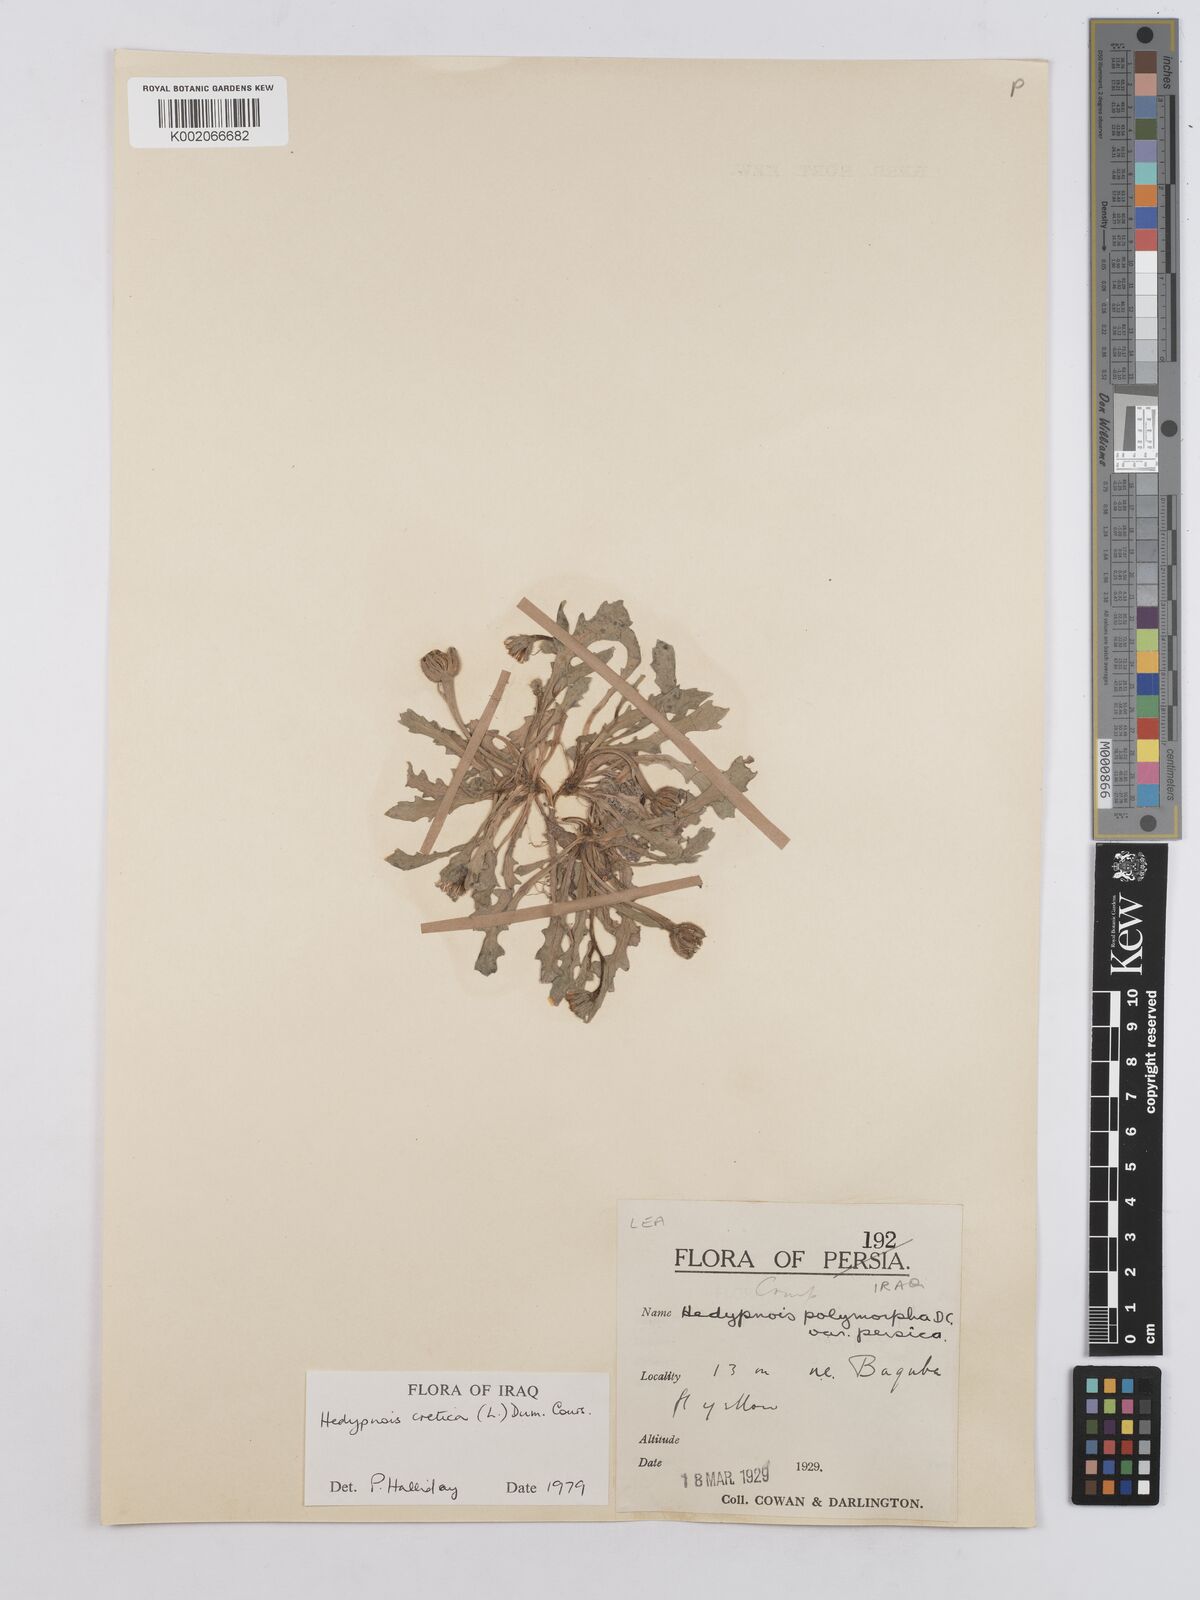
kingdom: Plantae
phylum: Tracheophyta
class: Magnoliopsida
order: Asterales
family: Asteraceae
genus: Hedypnois
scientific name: Hedypnois cretica
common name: Scaly hawkbit
